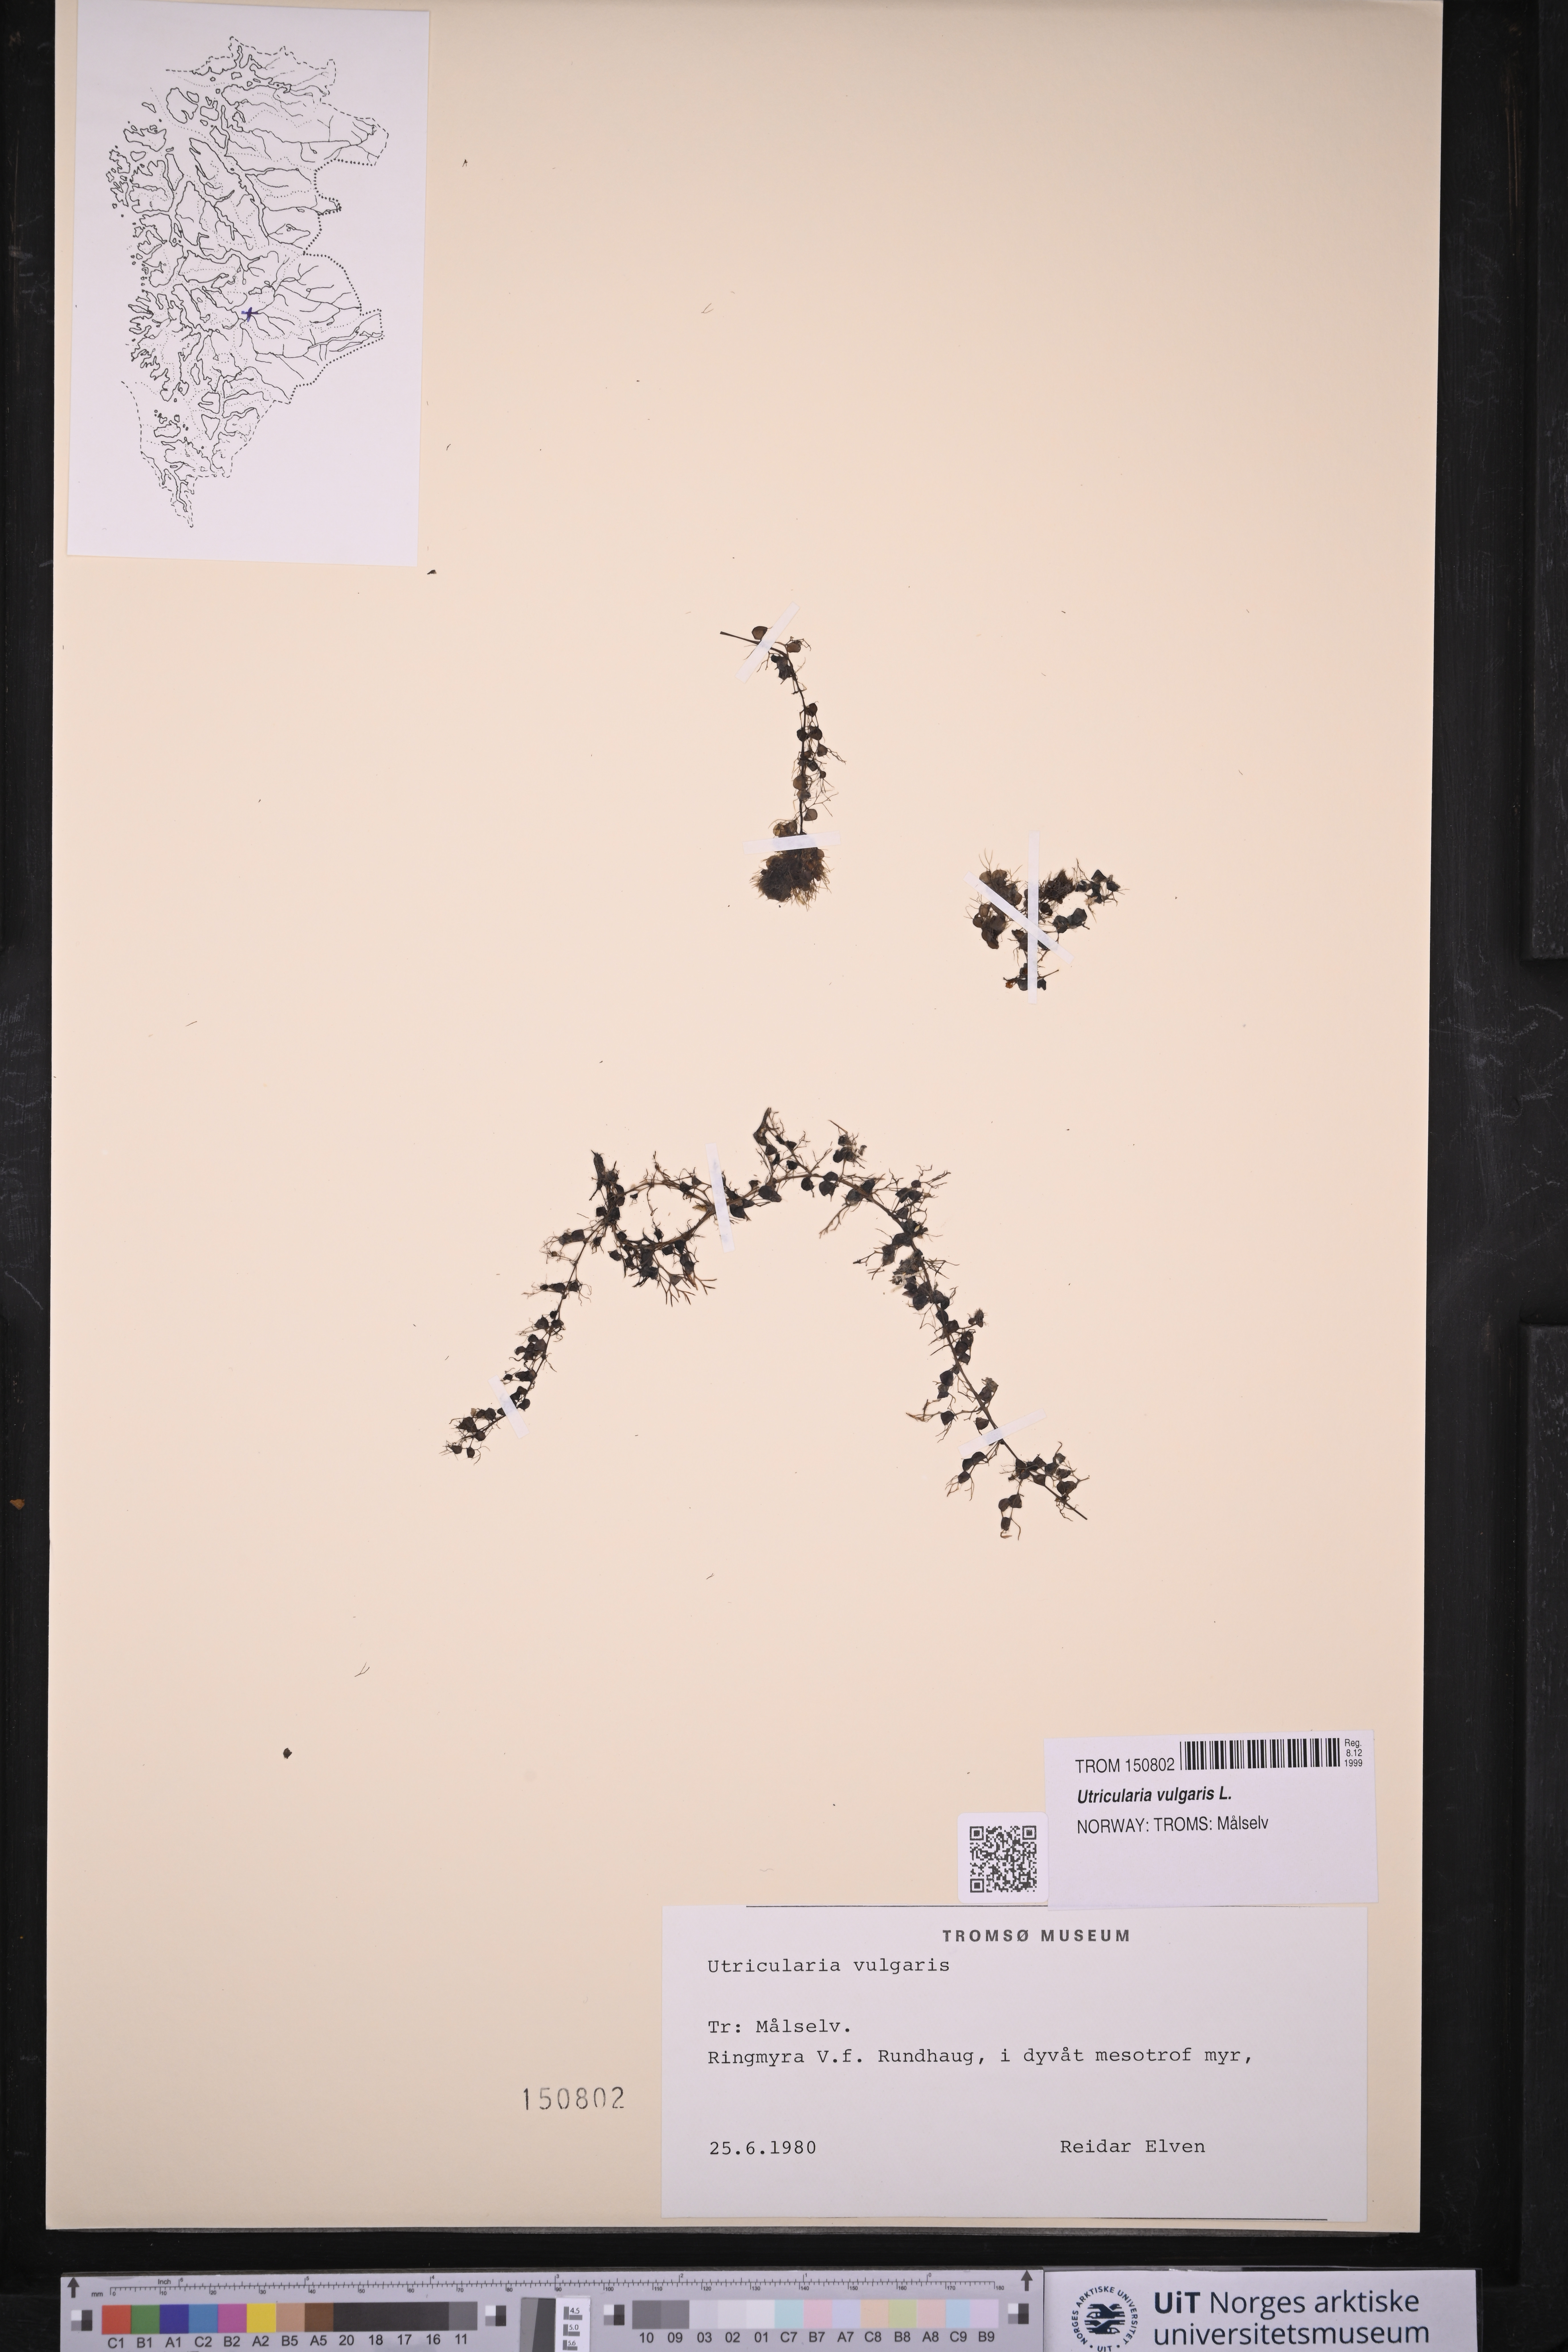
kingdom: Plantae
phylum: Tracheophyta
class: Magnoliopsida
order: Lamiales
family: Lentibulariaceae
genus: Utricularia
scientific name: Utricularia vulgaris
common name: Greater bladderwort
